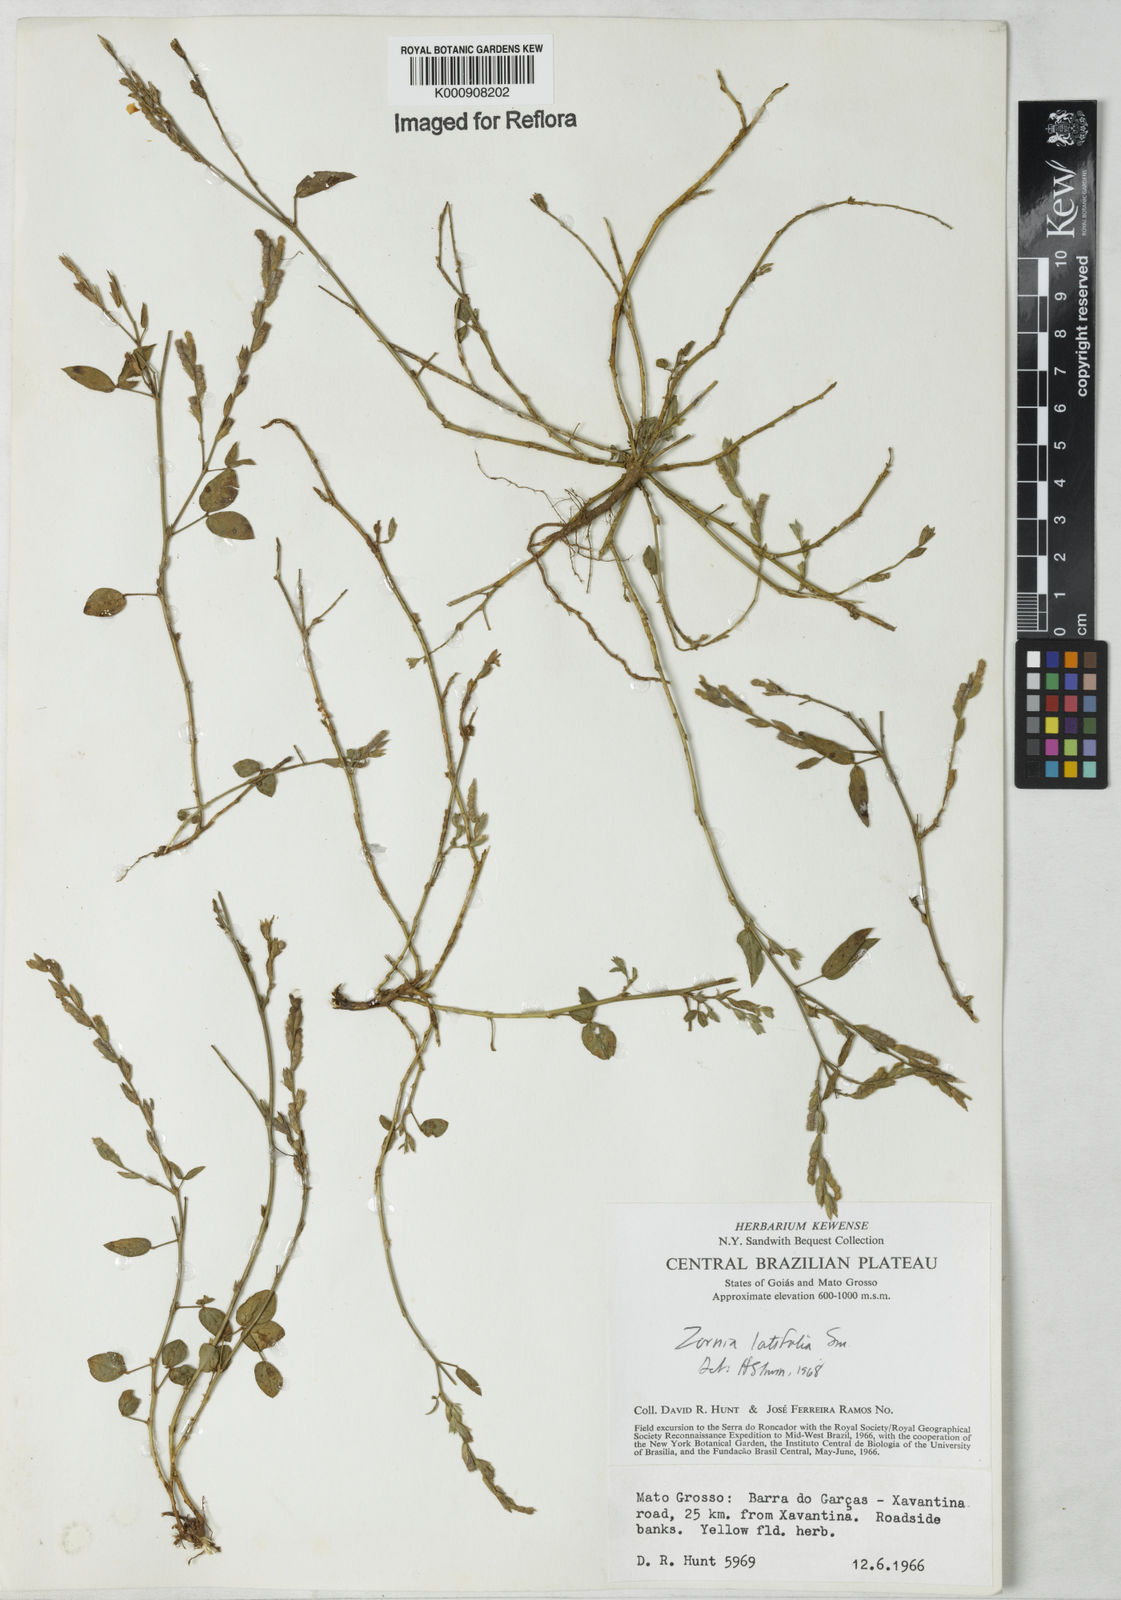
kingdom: Plantae
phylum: Tracheophyta
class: Magnoliopsida
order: Fabales
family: Fabaceae
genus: Zornia
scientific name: Zornia latifolia
